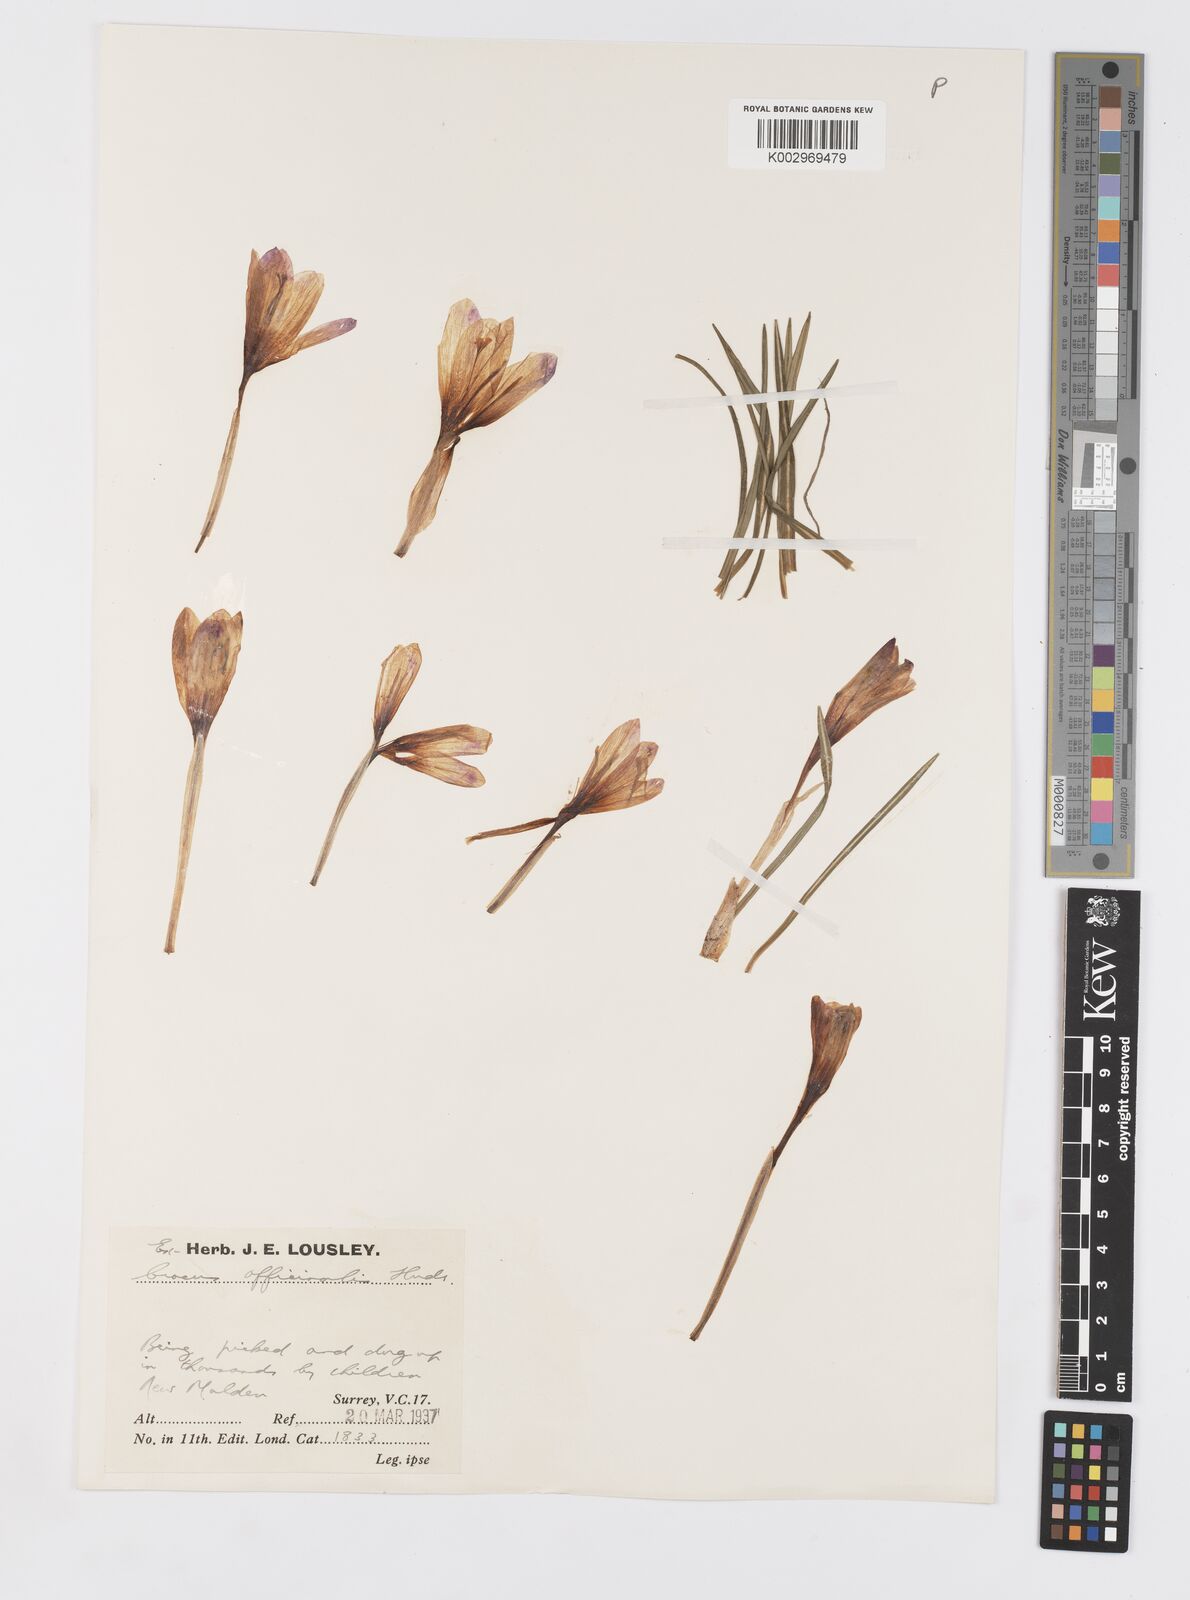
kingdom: Plantae
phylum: Tracheophyta
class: Liliopsida
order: Asparagales
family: Iridaceae
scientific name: Iridaceae
